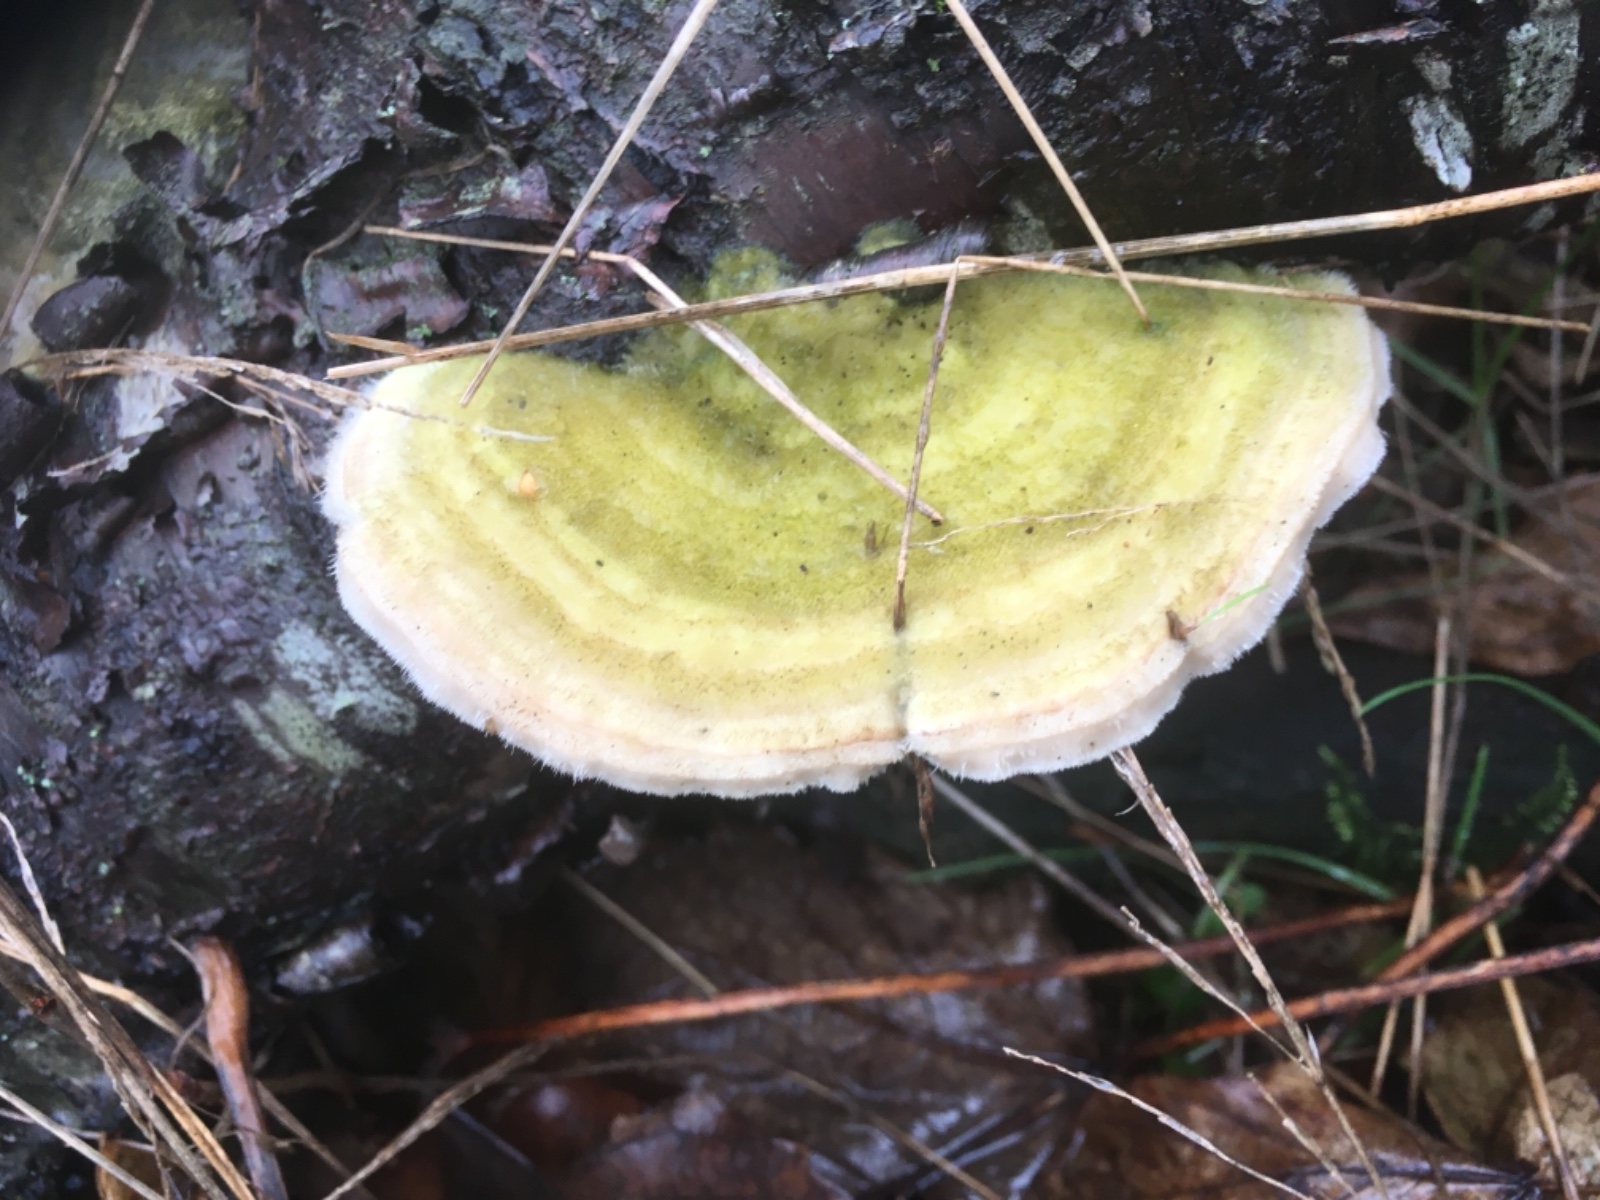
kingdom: Fungi
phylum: Basidiomycota
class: Agaricomycetes
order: Polyporales
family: Polyporaceae
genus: Trametes
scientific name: Trametes hirsuta
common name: håret læderporesvamp
